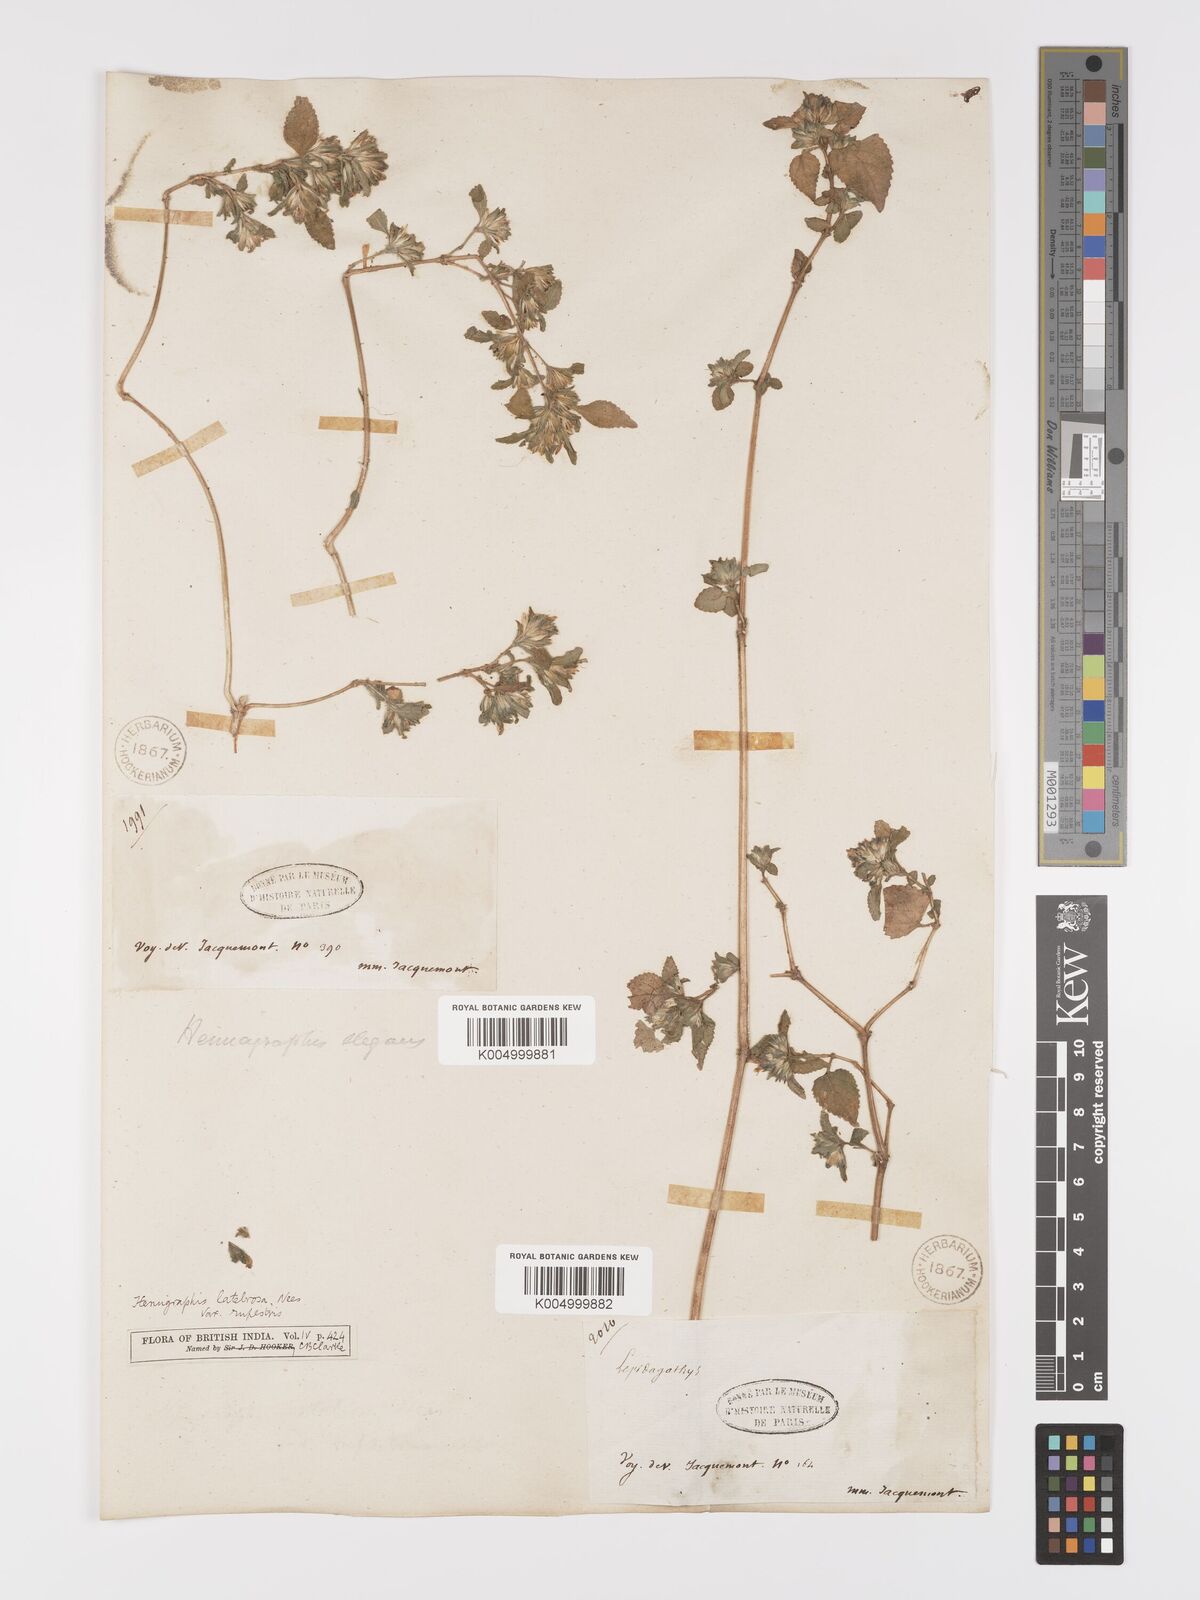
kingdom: Plantae
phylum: Tracheophyta
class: Magnoliopsida
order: Lamiales
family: Acanthaceae
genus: Strobilanthes
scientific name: Strobilanthes pavala
